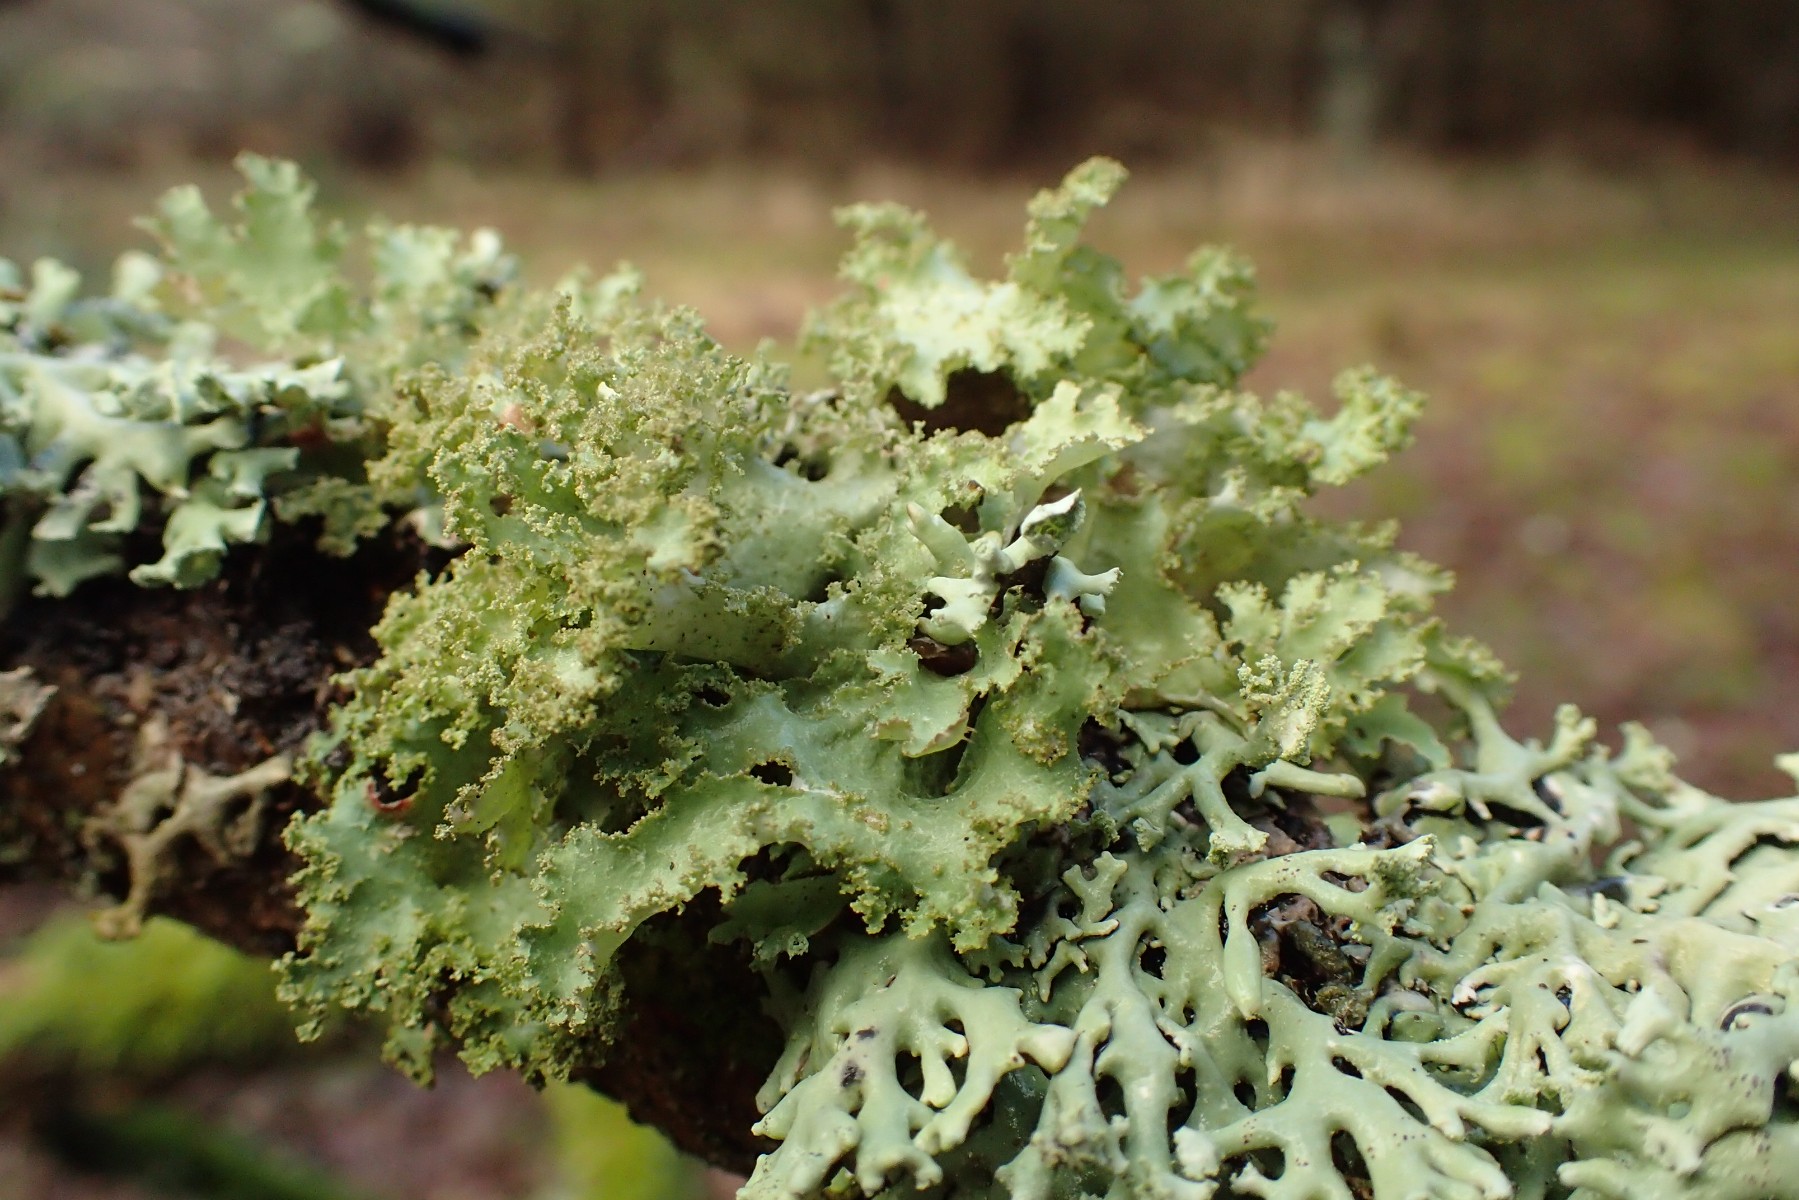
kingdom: Fungi
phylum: Ascomycota
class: Lecanoromycetes
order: Lecanorales
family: Parmeliaceae
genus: Platismatia
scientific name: Platismatia glauca
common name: blågrå papirlav
